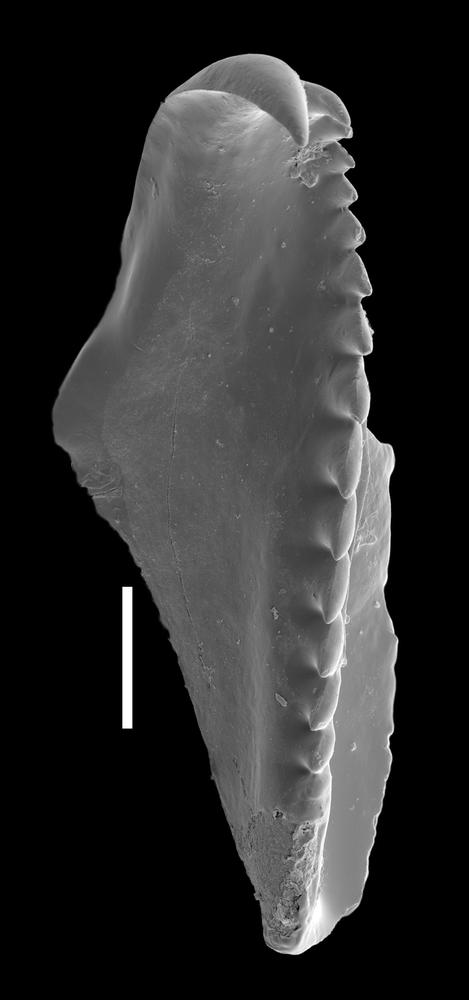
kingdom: Animalia
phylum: Annelida
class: Polychaeta
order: Eunicida
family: Polychaetaspidae
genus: Oenonites
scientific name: Oenonites
